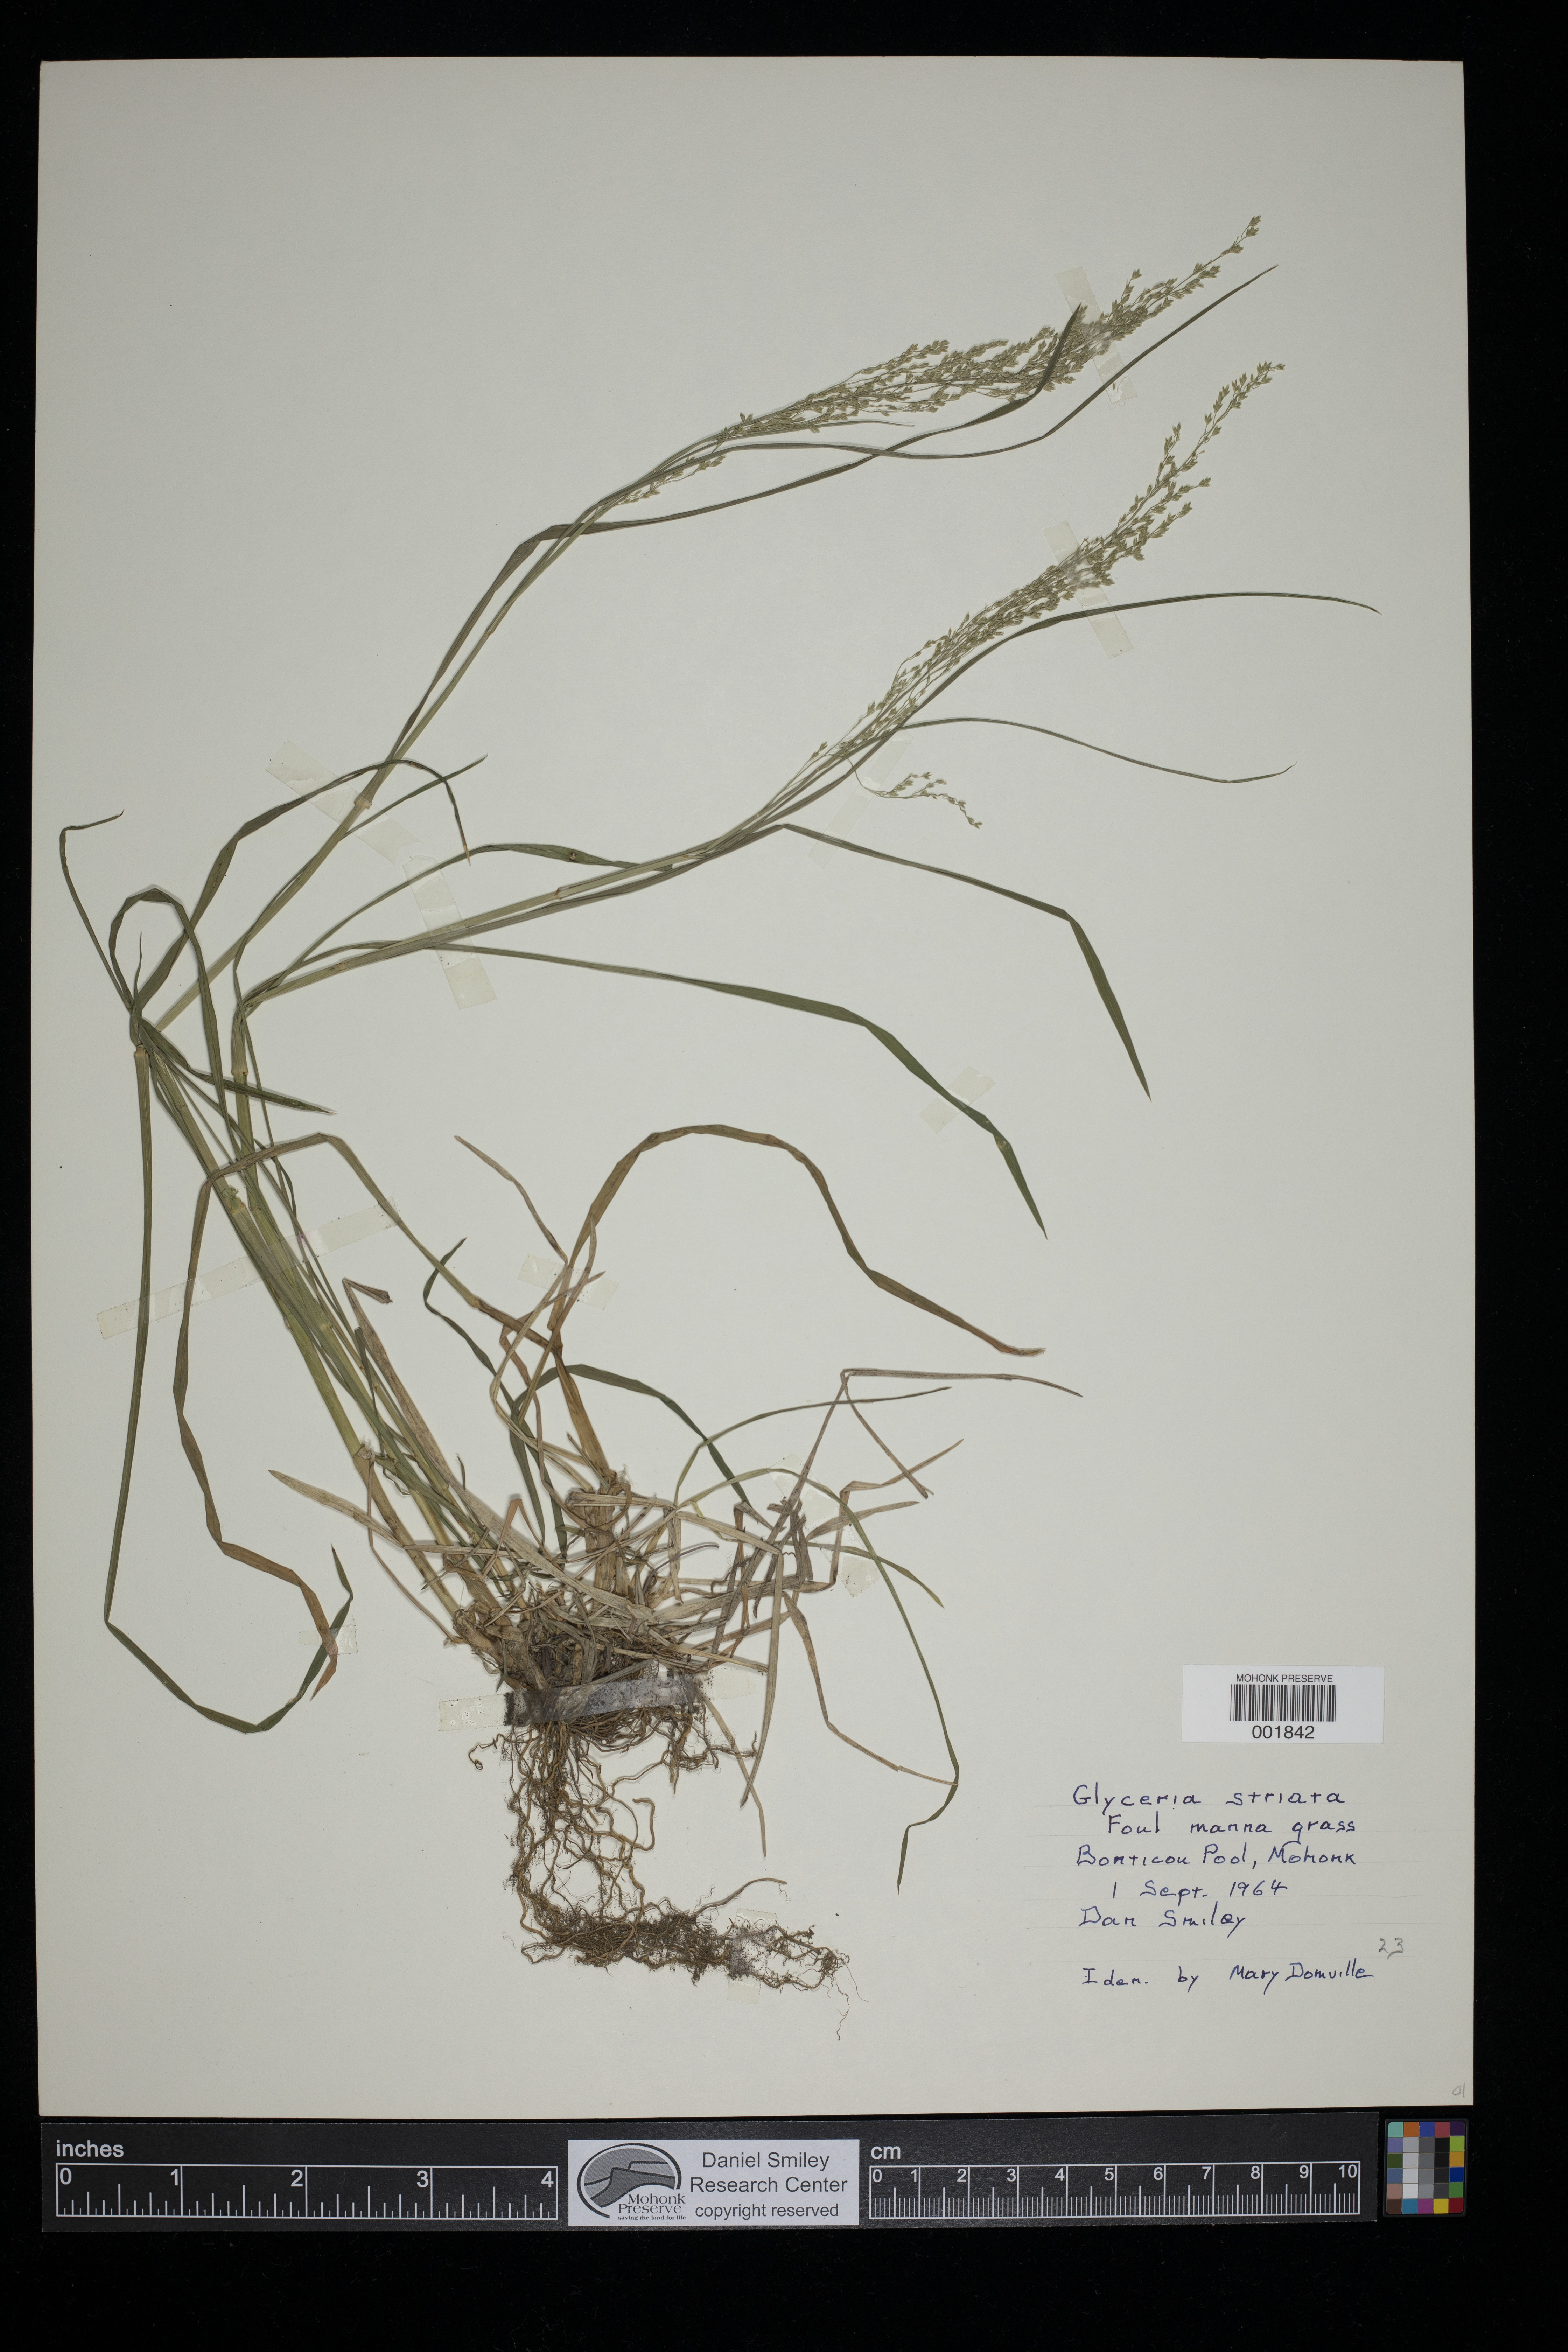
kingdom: Plantae
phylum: Tracheophyta
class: Liliopsida
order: Poales
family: Poaceae
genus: Glyceria
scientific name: Glyceria striata
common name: Fowl manna grass
